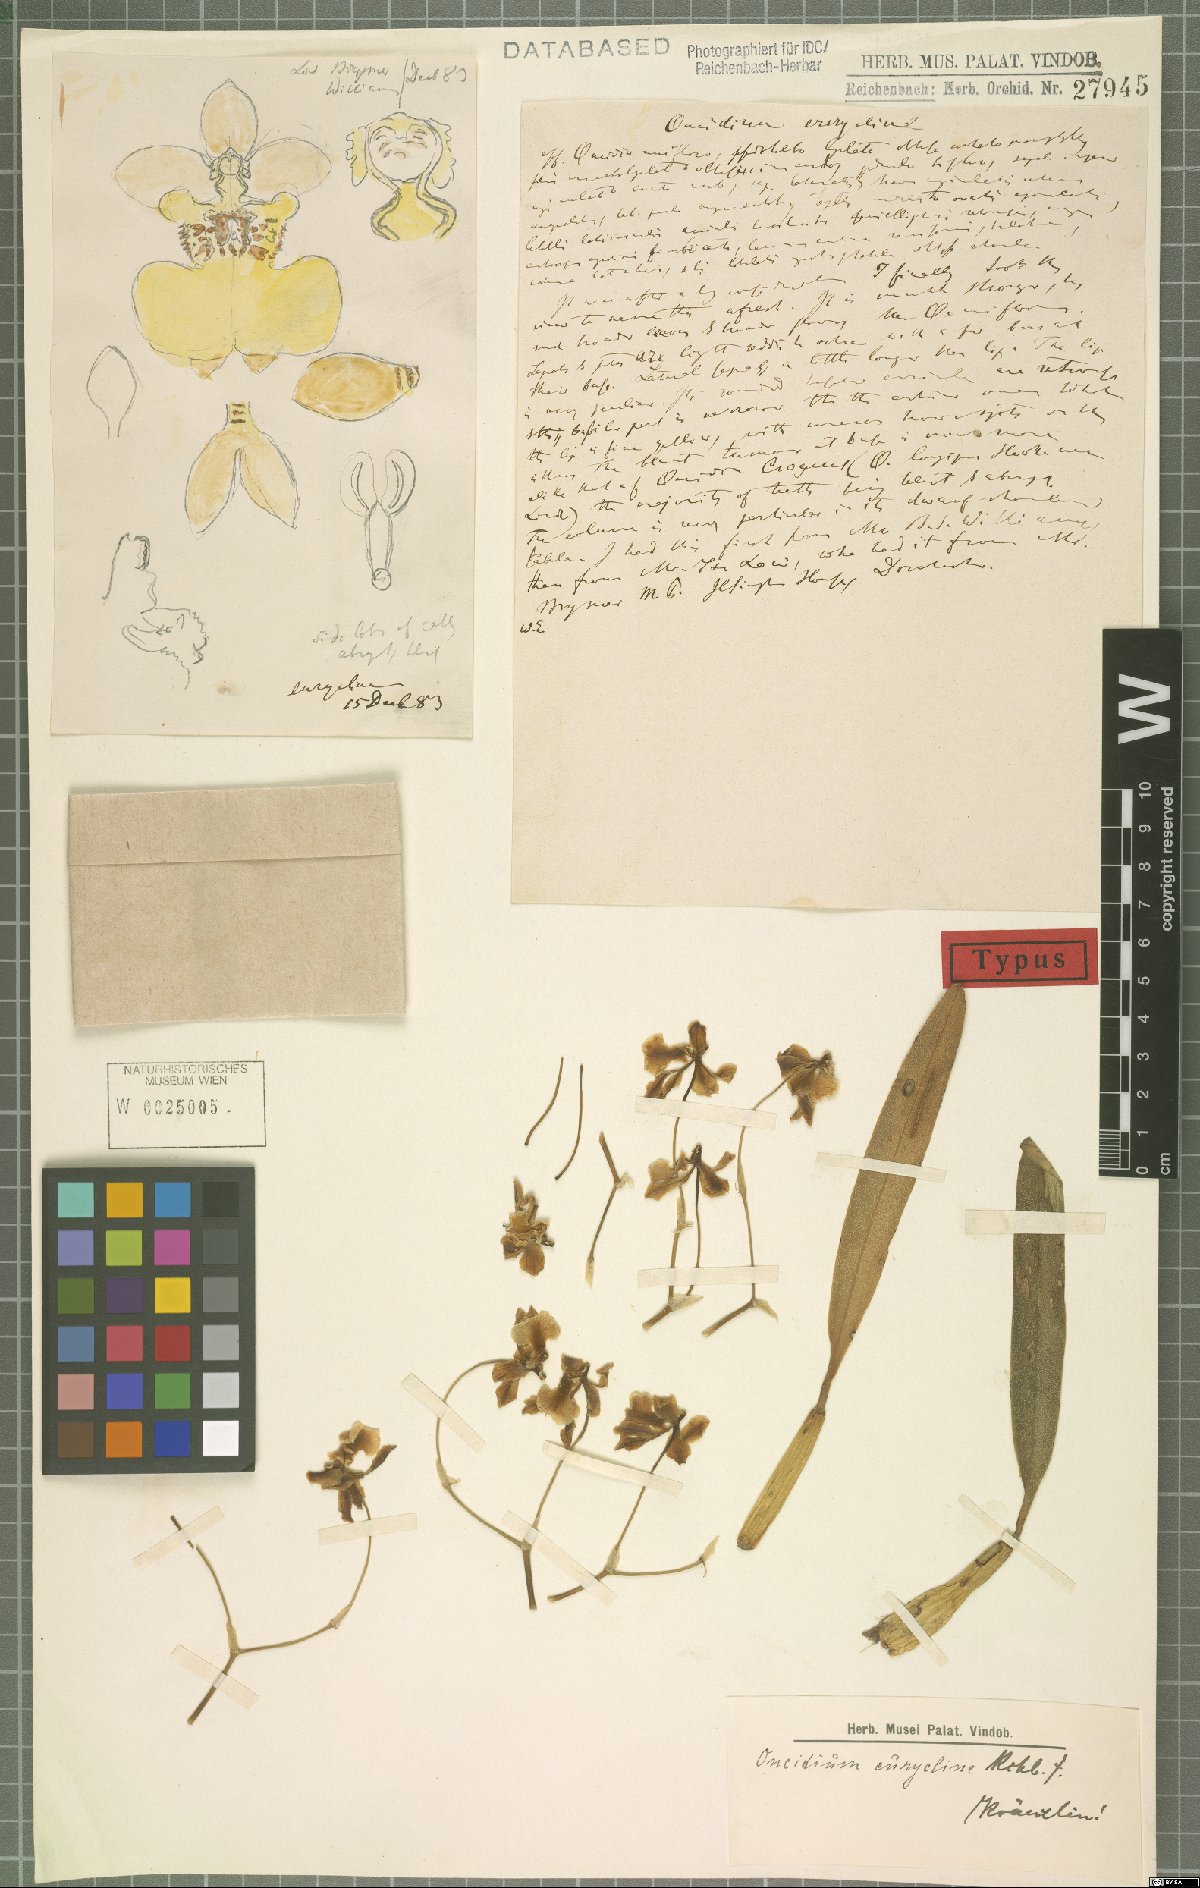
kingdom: Plantae
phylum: Tracheophyta
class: Liliopsida
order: Asparagales
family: Orchidaceae
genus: Gomesa
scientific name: Gomesa longipes
